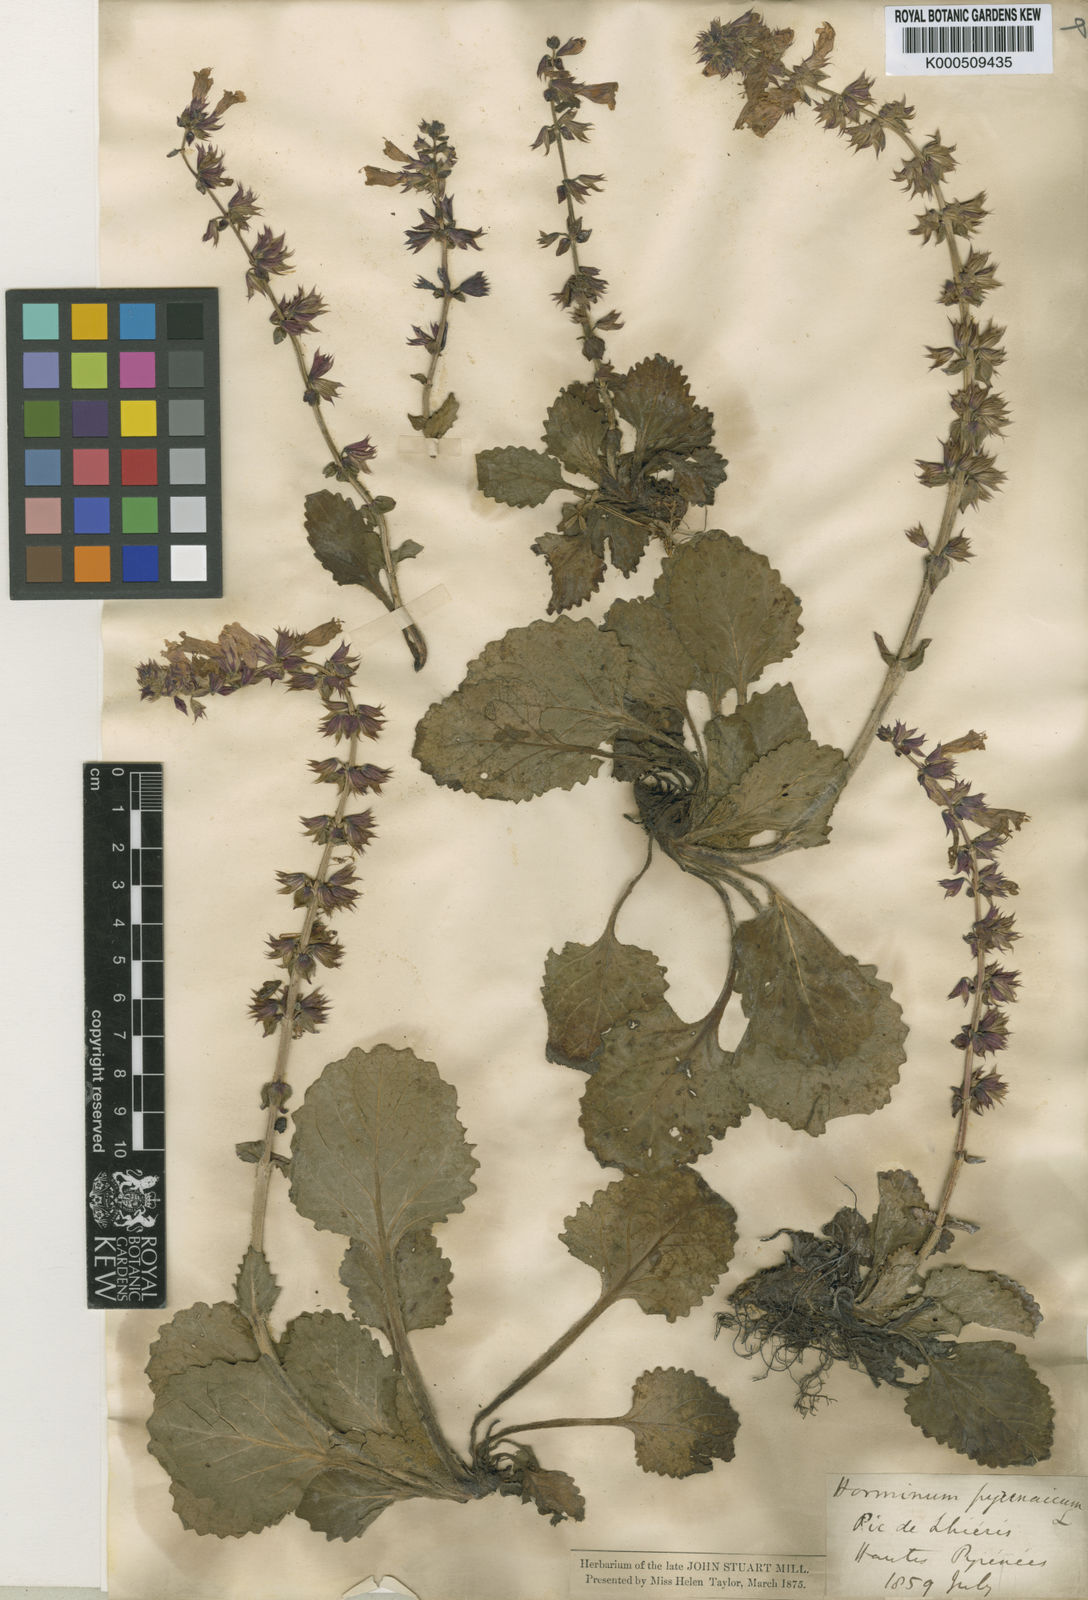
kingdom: Plantae
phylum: Tracheophyta
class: Magnoliopsida
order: Lamiales
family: Lamiaceae
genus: Horminum
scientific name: Horminum pyrenaicum
